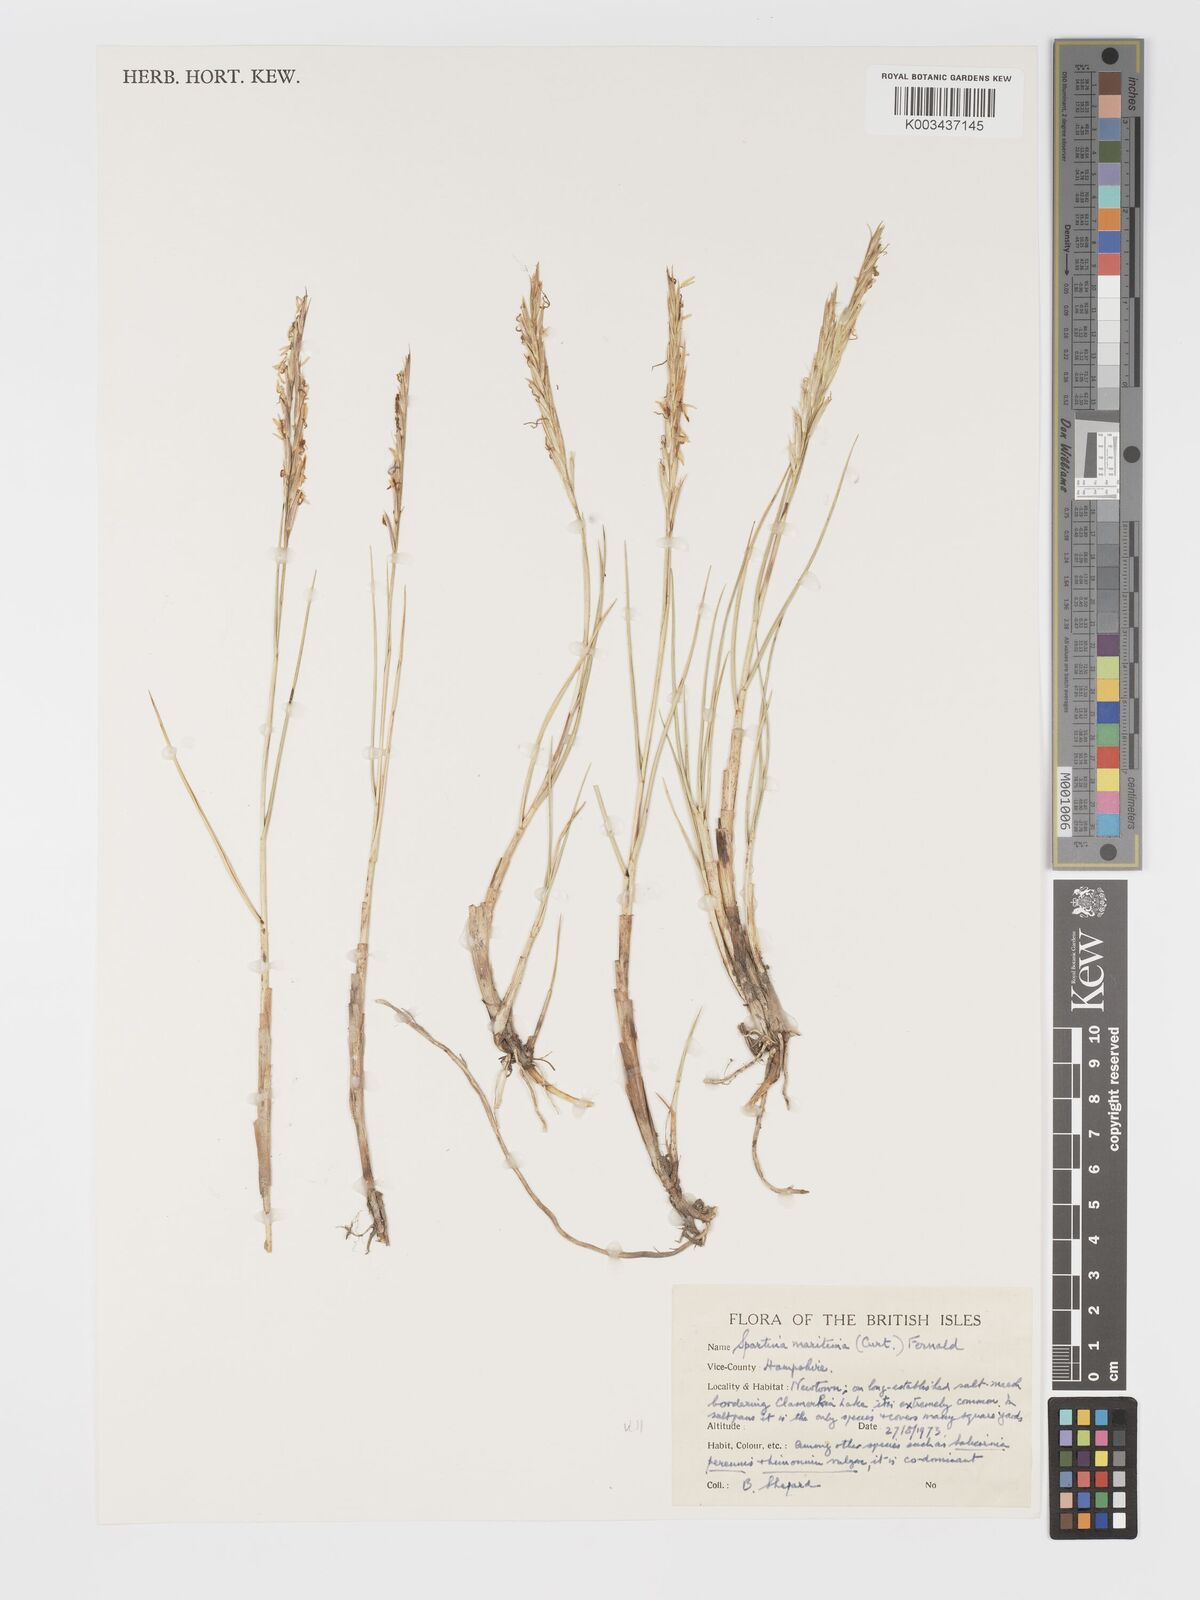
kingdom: Plantae
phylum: Tracheophyta
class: Liliopsida
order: Poales
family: Poaceae
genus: Sporobolus
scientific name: Sporobolus maritimus
